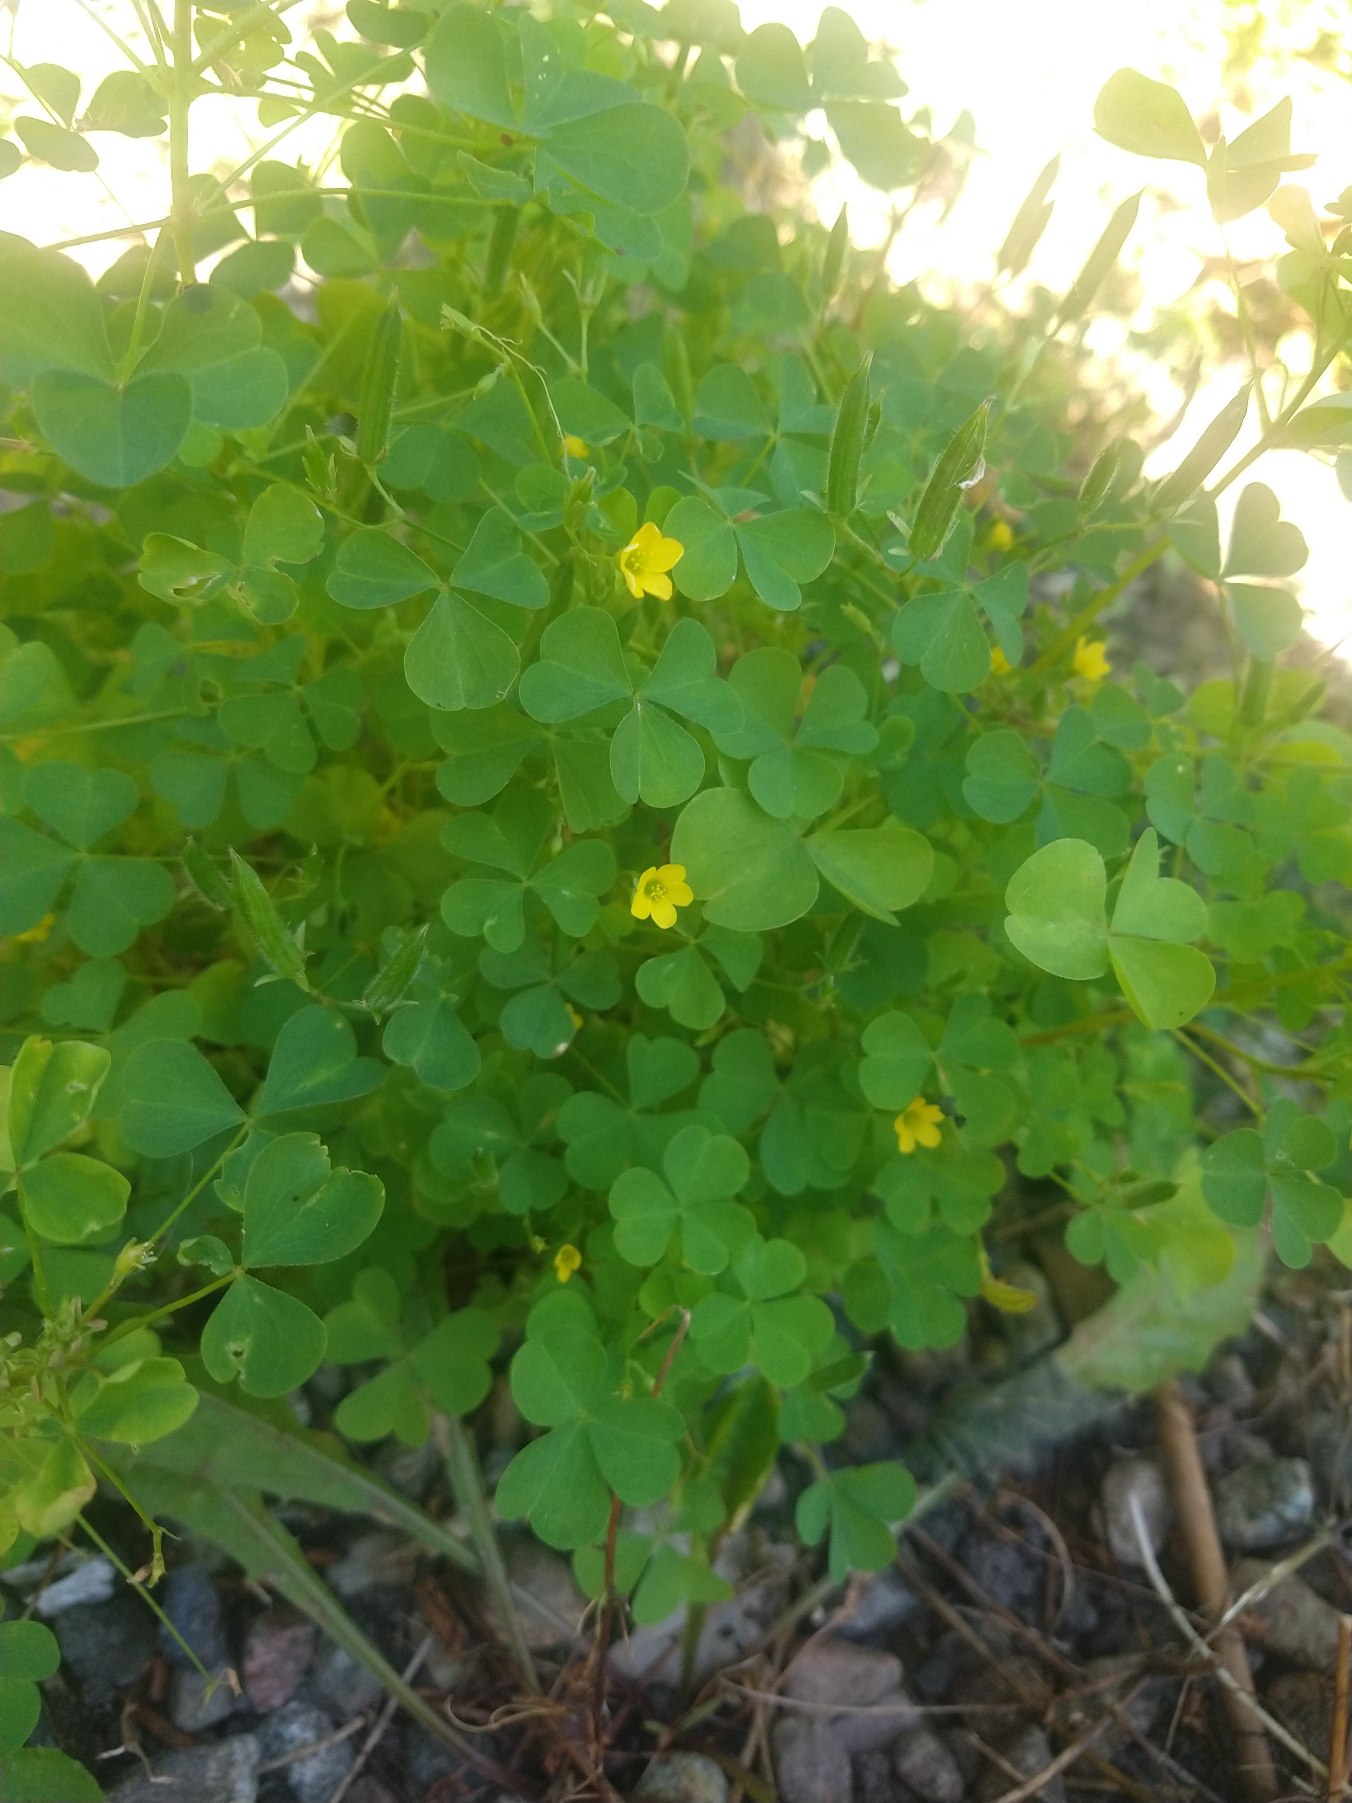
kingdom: Plantae
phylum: Tracheophyta
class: Magnoliopsida
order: Oxalidales
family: Oxalidaceae
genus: Oxalis
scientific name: Oxalis stricta
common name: Rank surkløver
